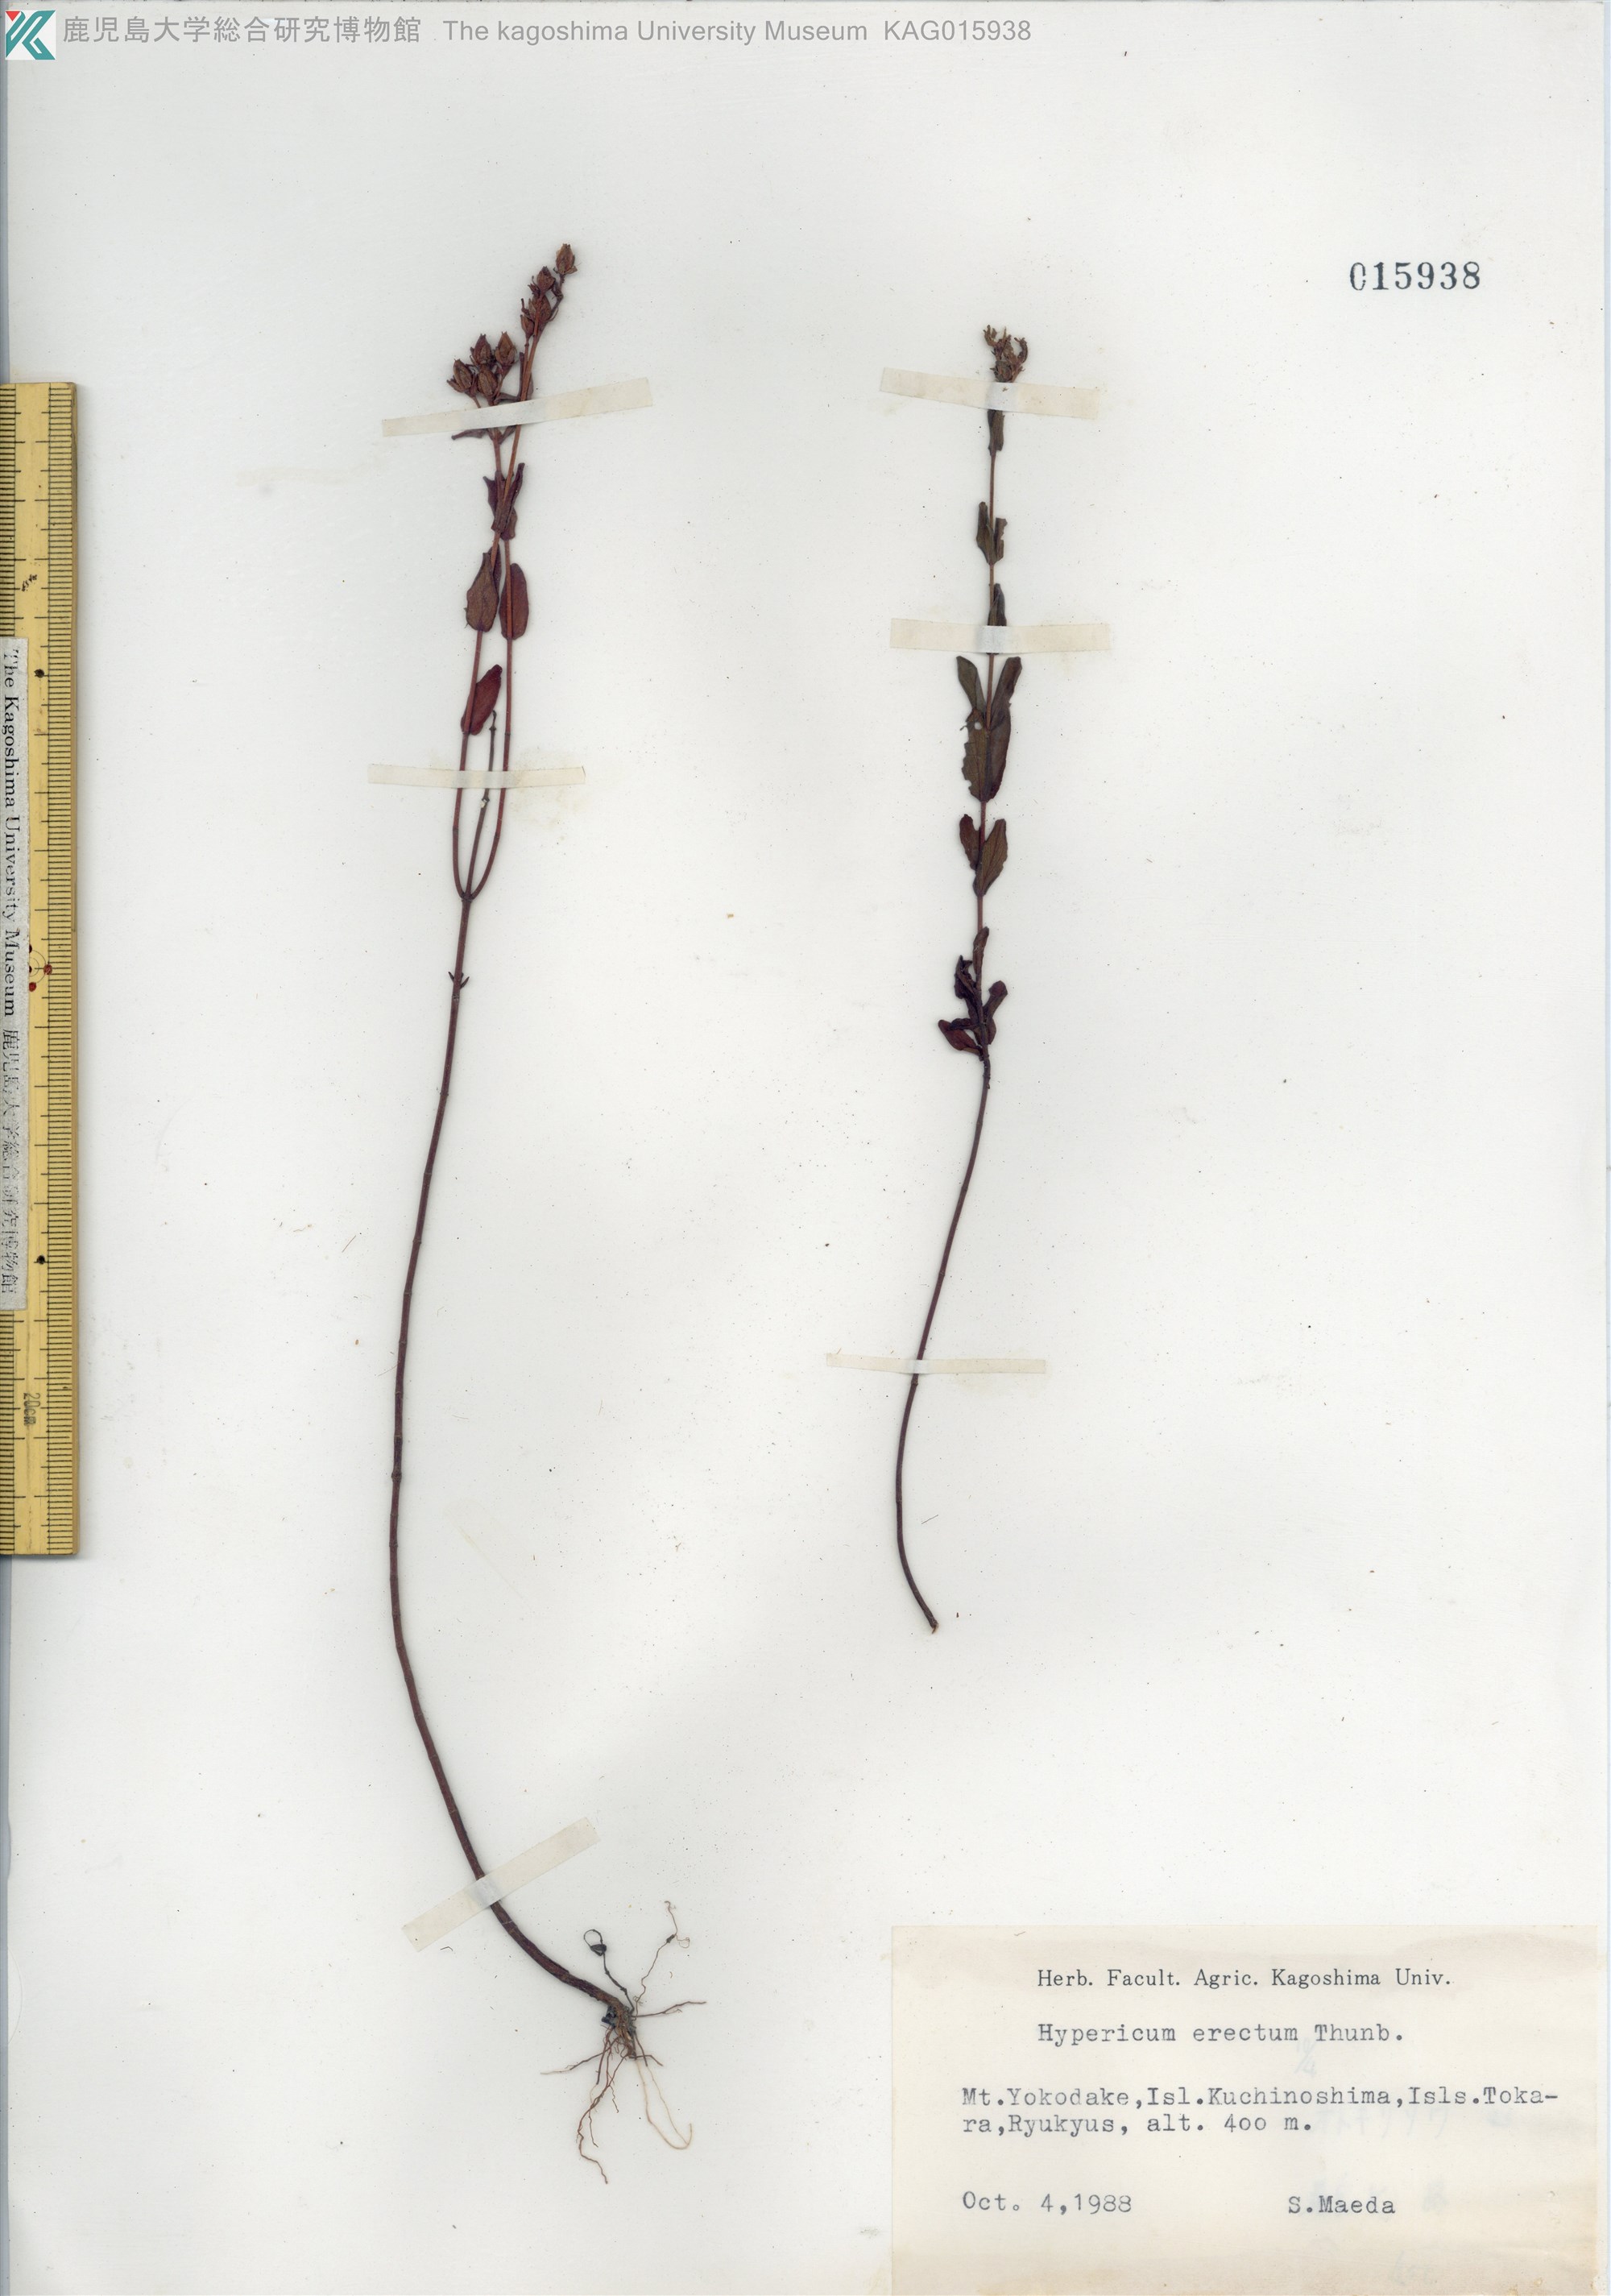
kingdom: Plantae
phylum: Tracheophyta
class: Magnoliopsida
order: Malpighiales
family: Hypericaceae
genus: Hypericum
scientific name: Hypericum erectum
